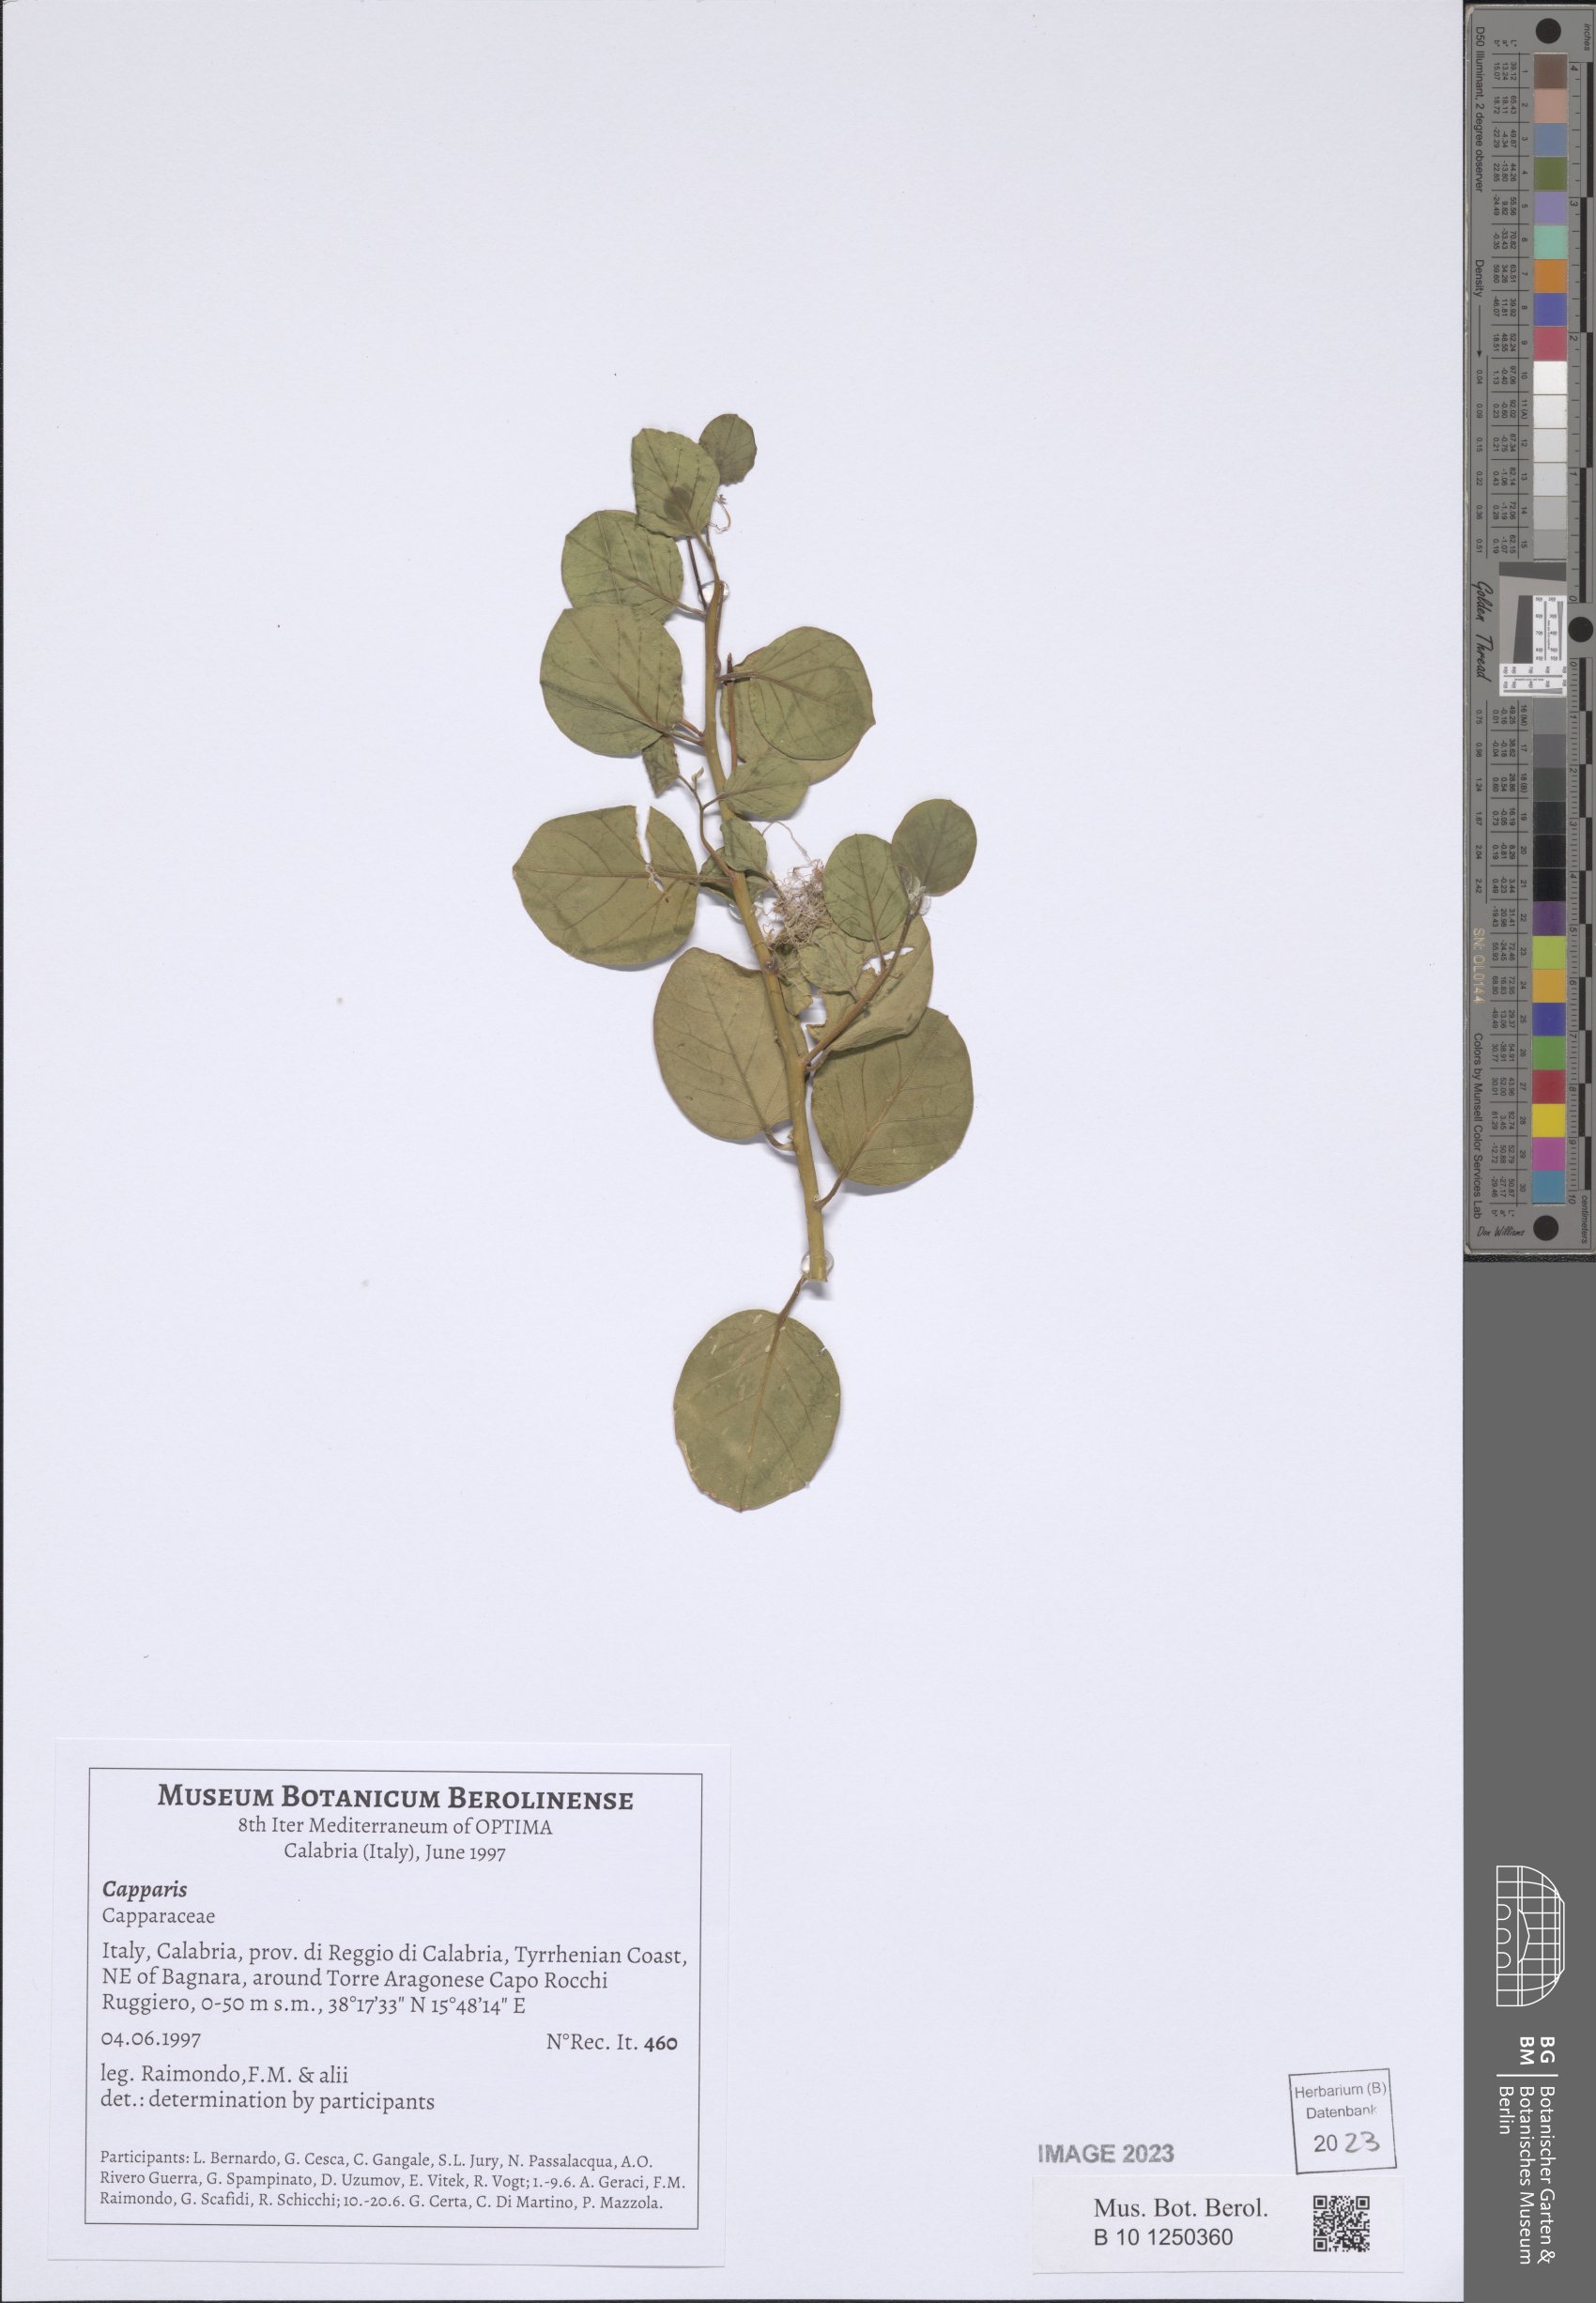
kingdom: Plantae
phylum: Tracheophyta
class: Magnoliopsida
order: Brassicales
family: Capparaceae
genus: Capparis
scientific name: Capparis
